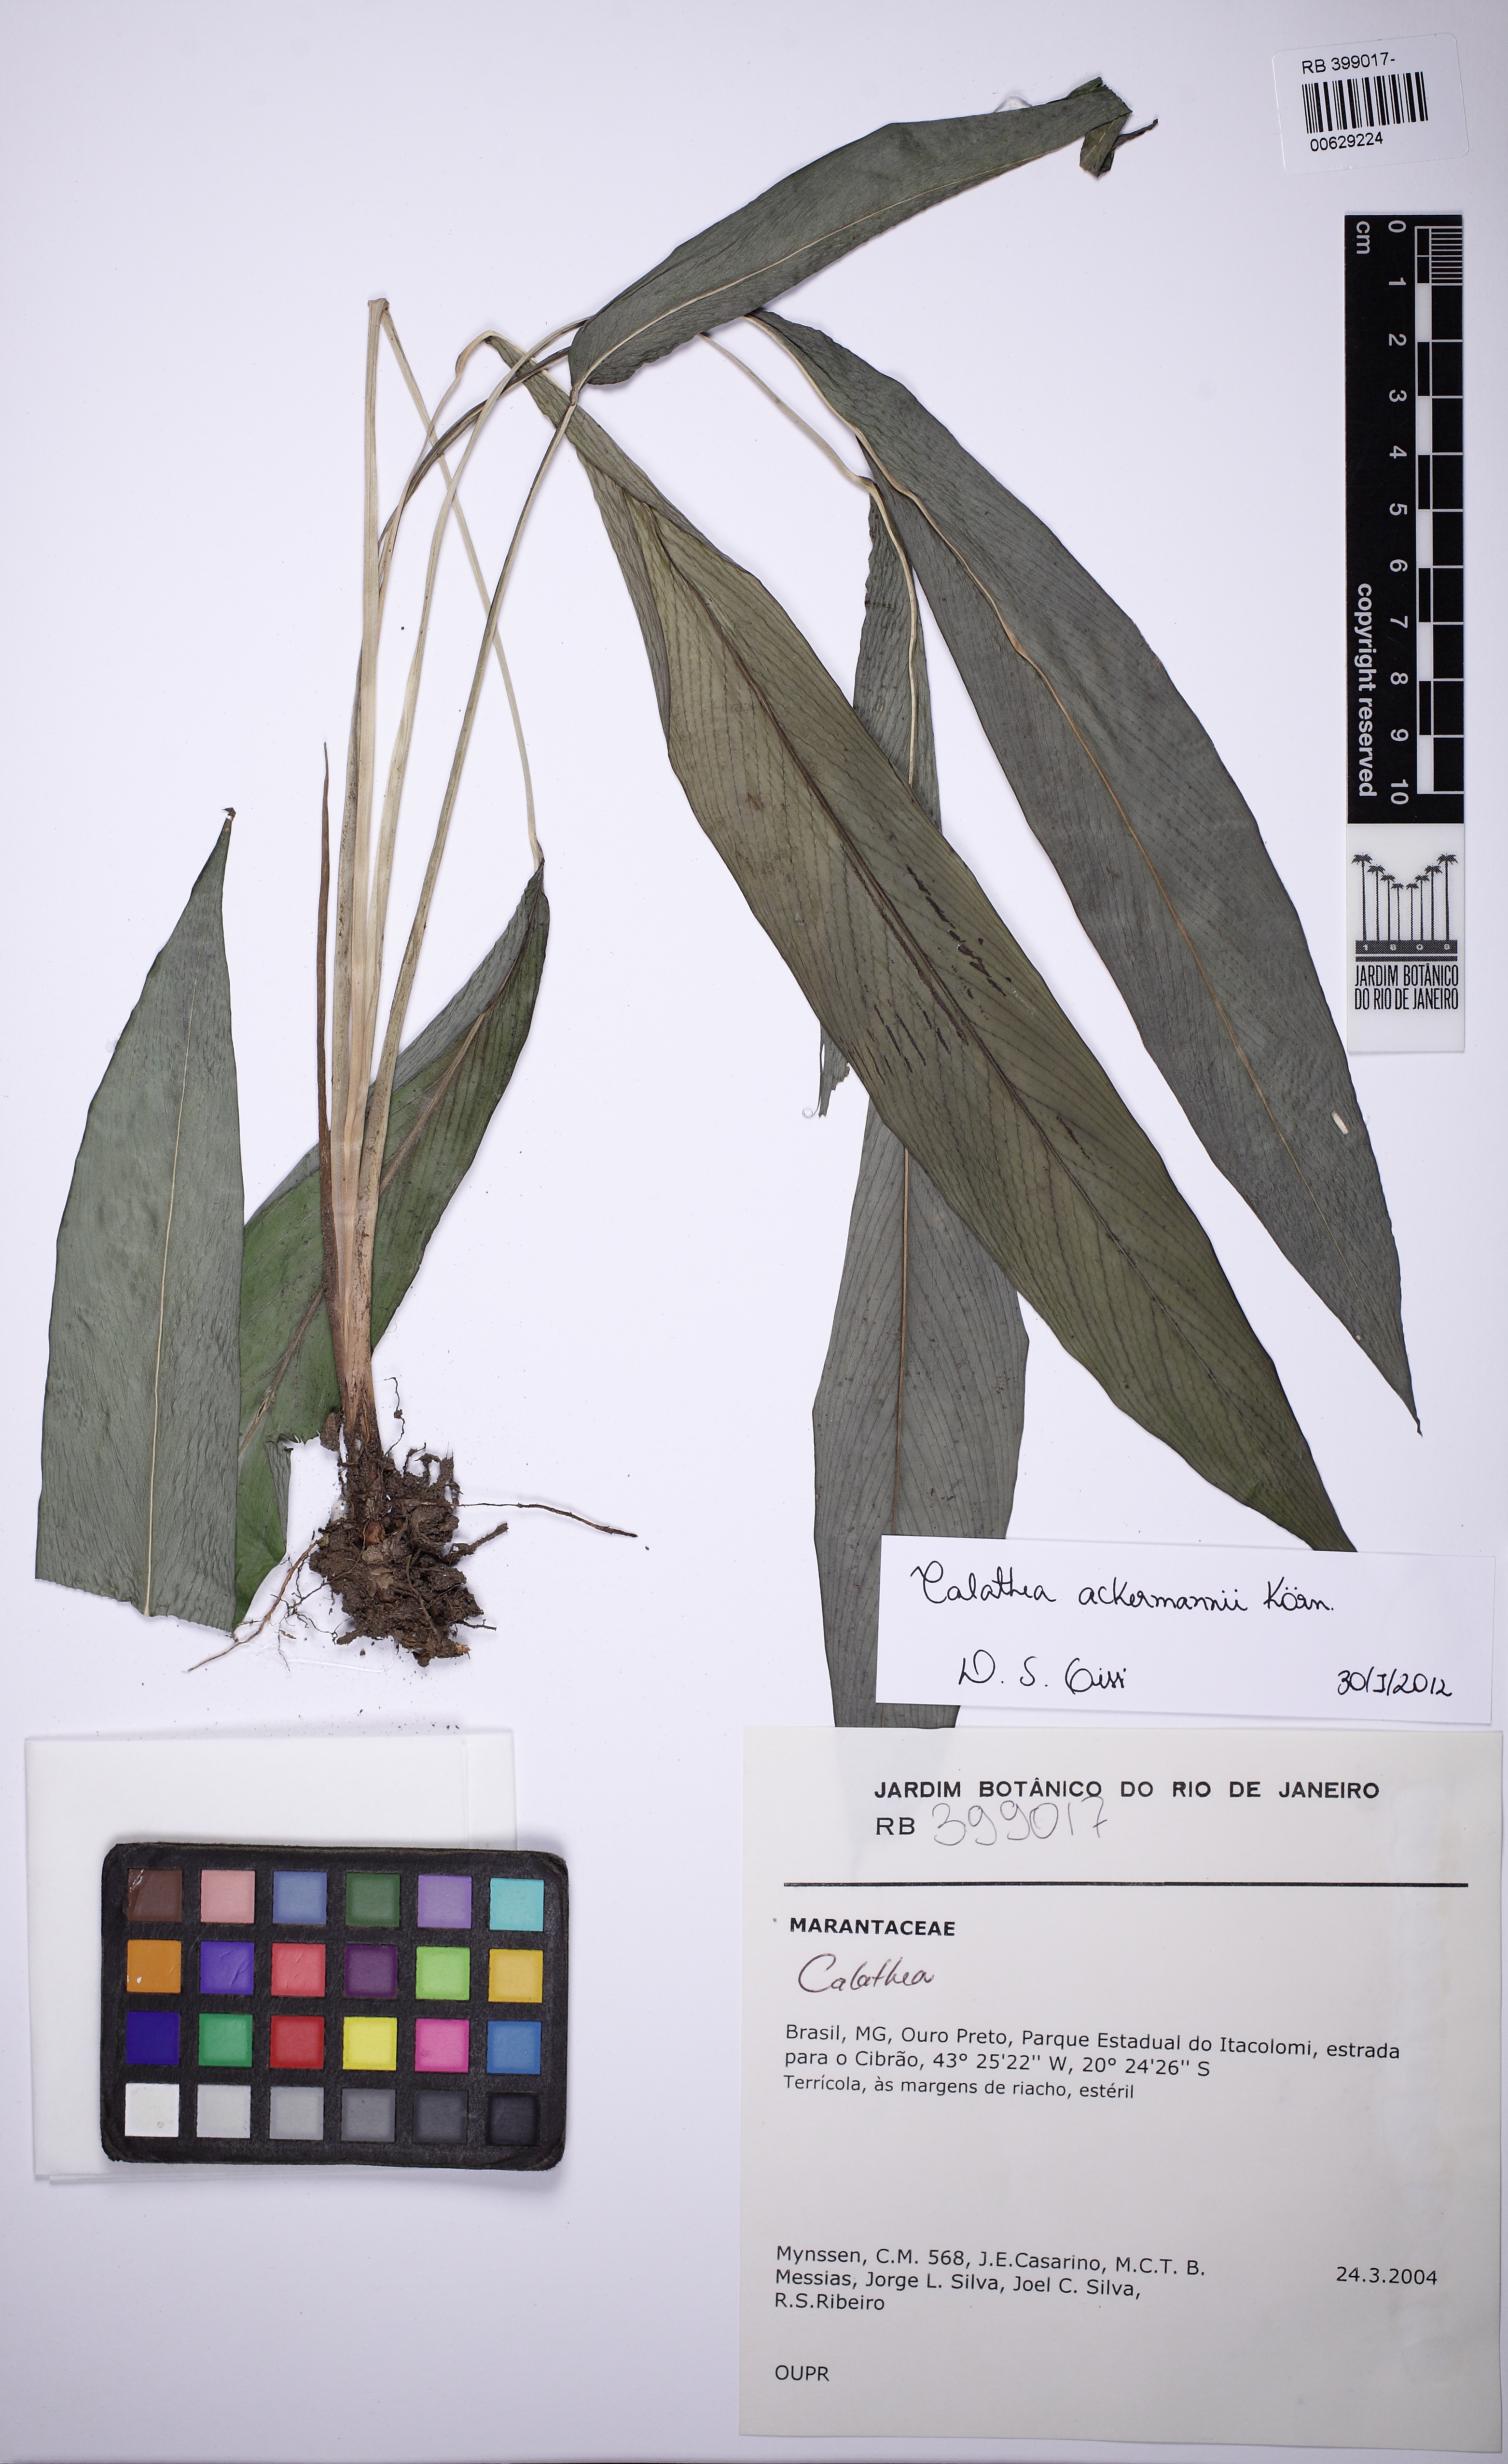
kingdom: Plantae
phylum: Tracheophyta
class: Liliopsida
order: Zingiberales
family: Marantaceae
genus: Goeppertia
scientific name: Goeppertia ackermannii
